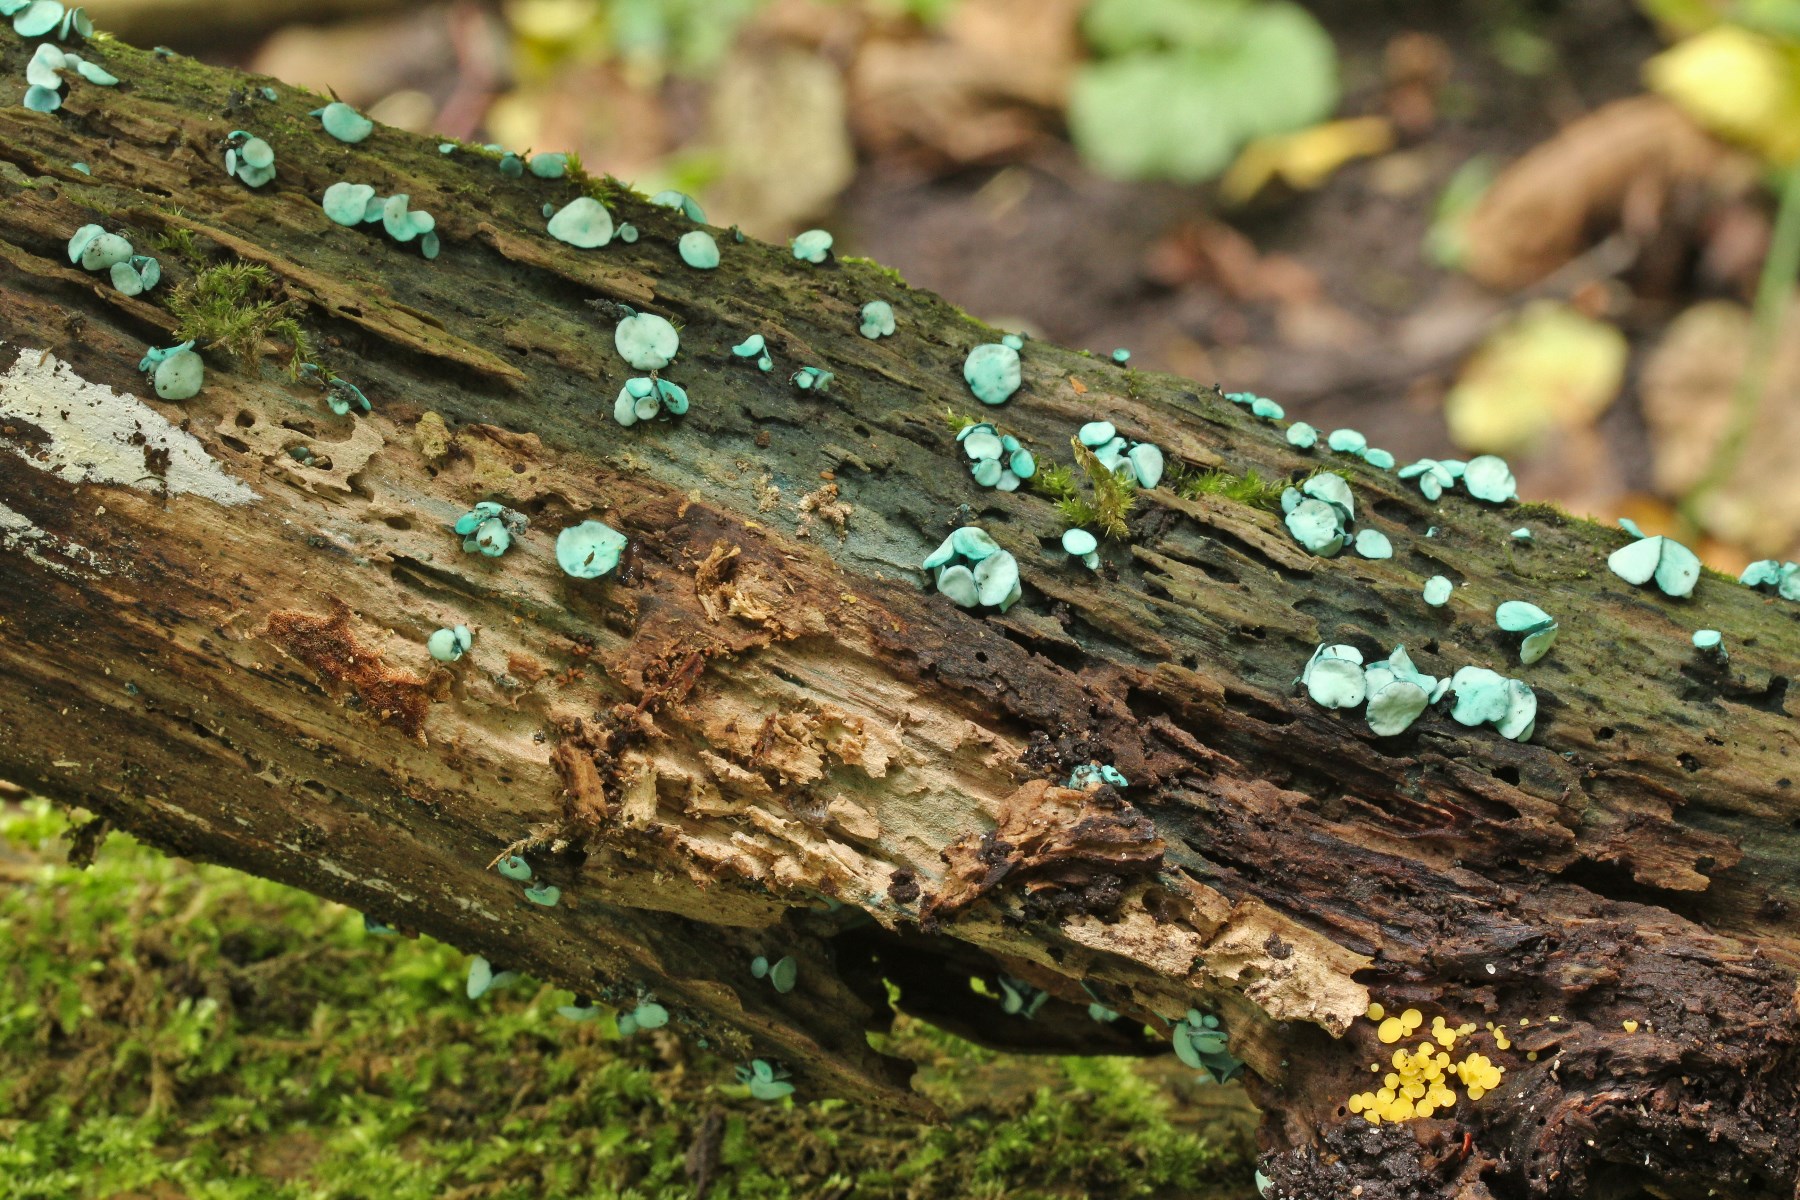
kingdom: Fungi
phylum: Ascomycota
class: Leotiomycetes
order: Helotiales
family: Chlorociboriaceae
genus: Chlorociboria
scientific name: Chlorociboria aeruginascens
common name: almindelig grønskive
